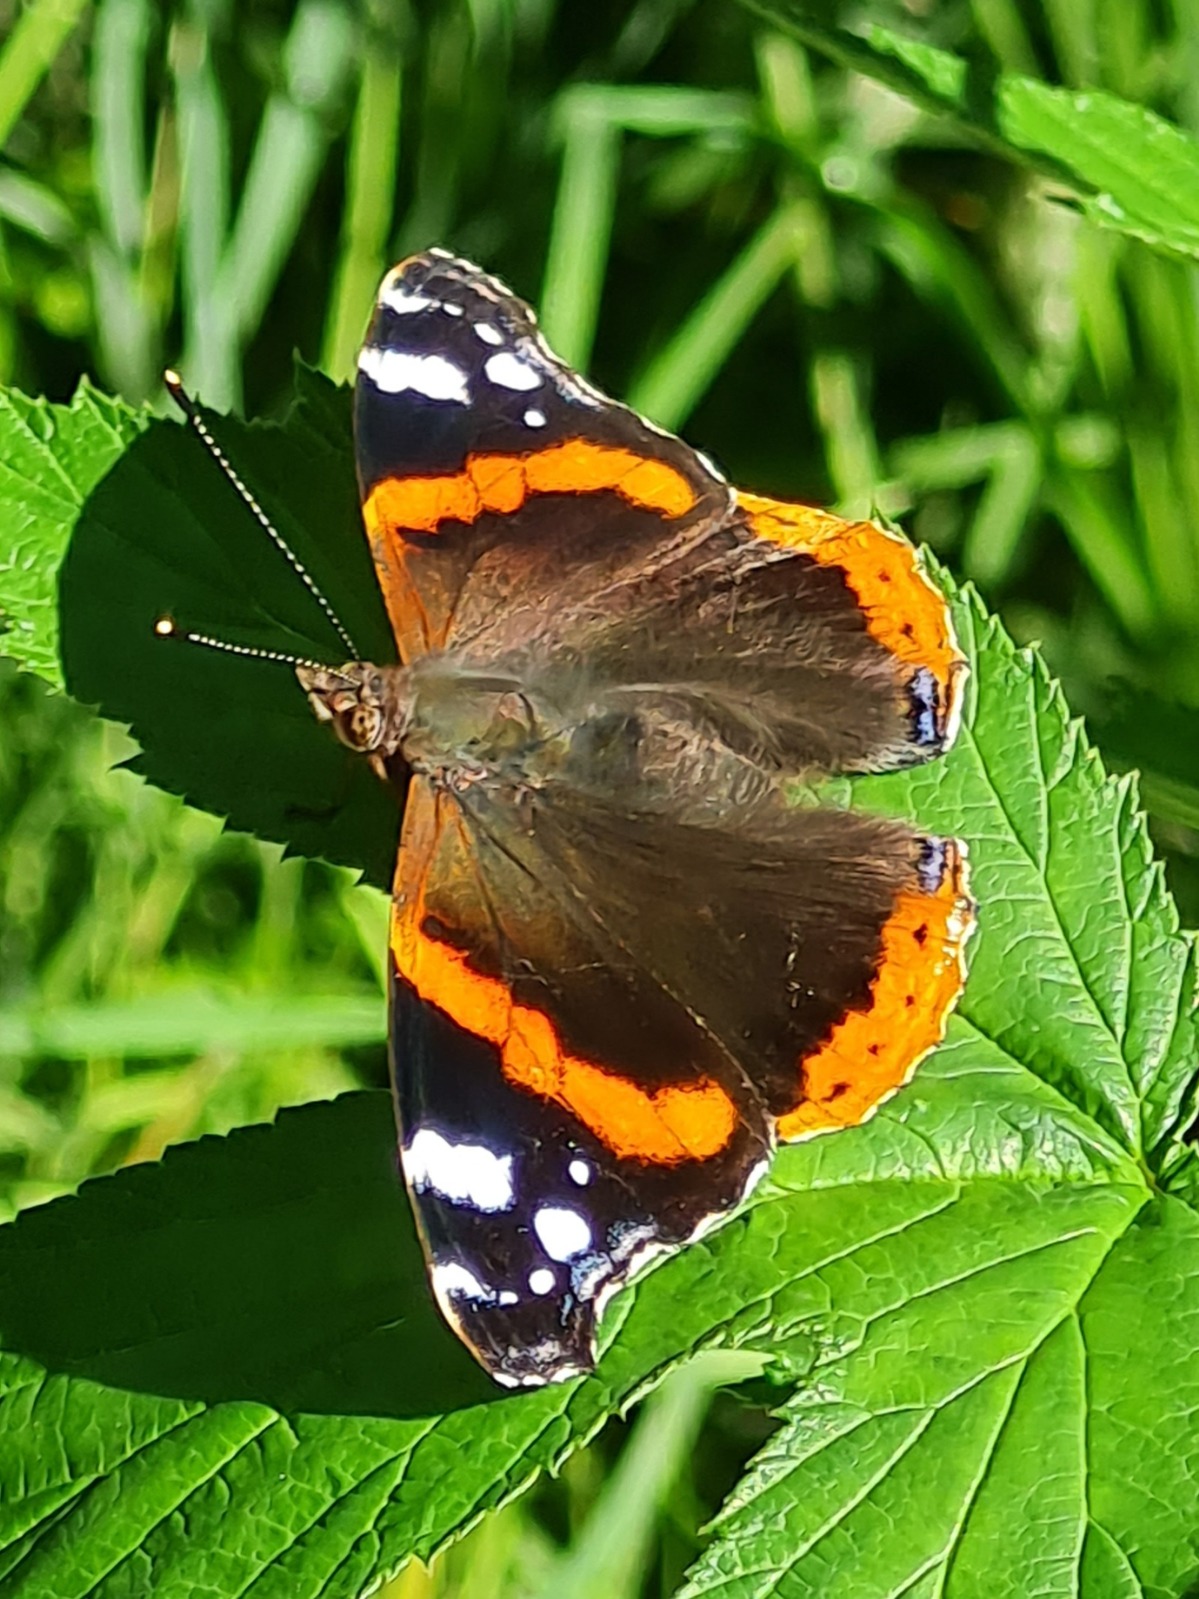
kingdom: Animalia
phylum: Arthropoda
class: Insecta
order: Lepidoptera
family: Nymphalidae
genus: Vanessa
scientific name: Vanessa atalanta
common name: Admiral
